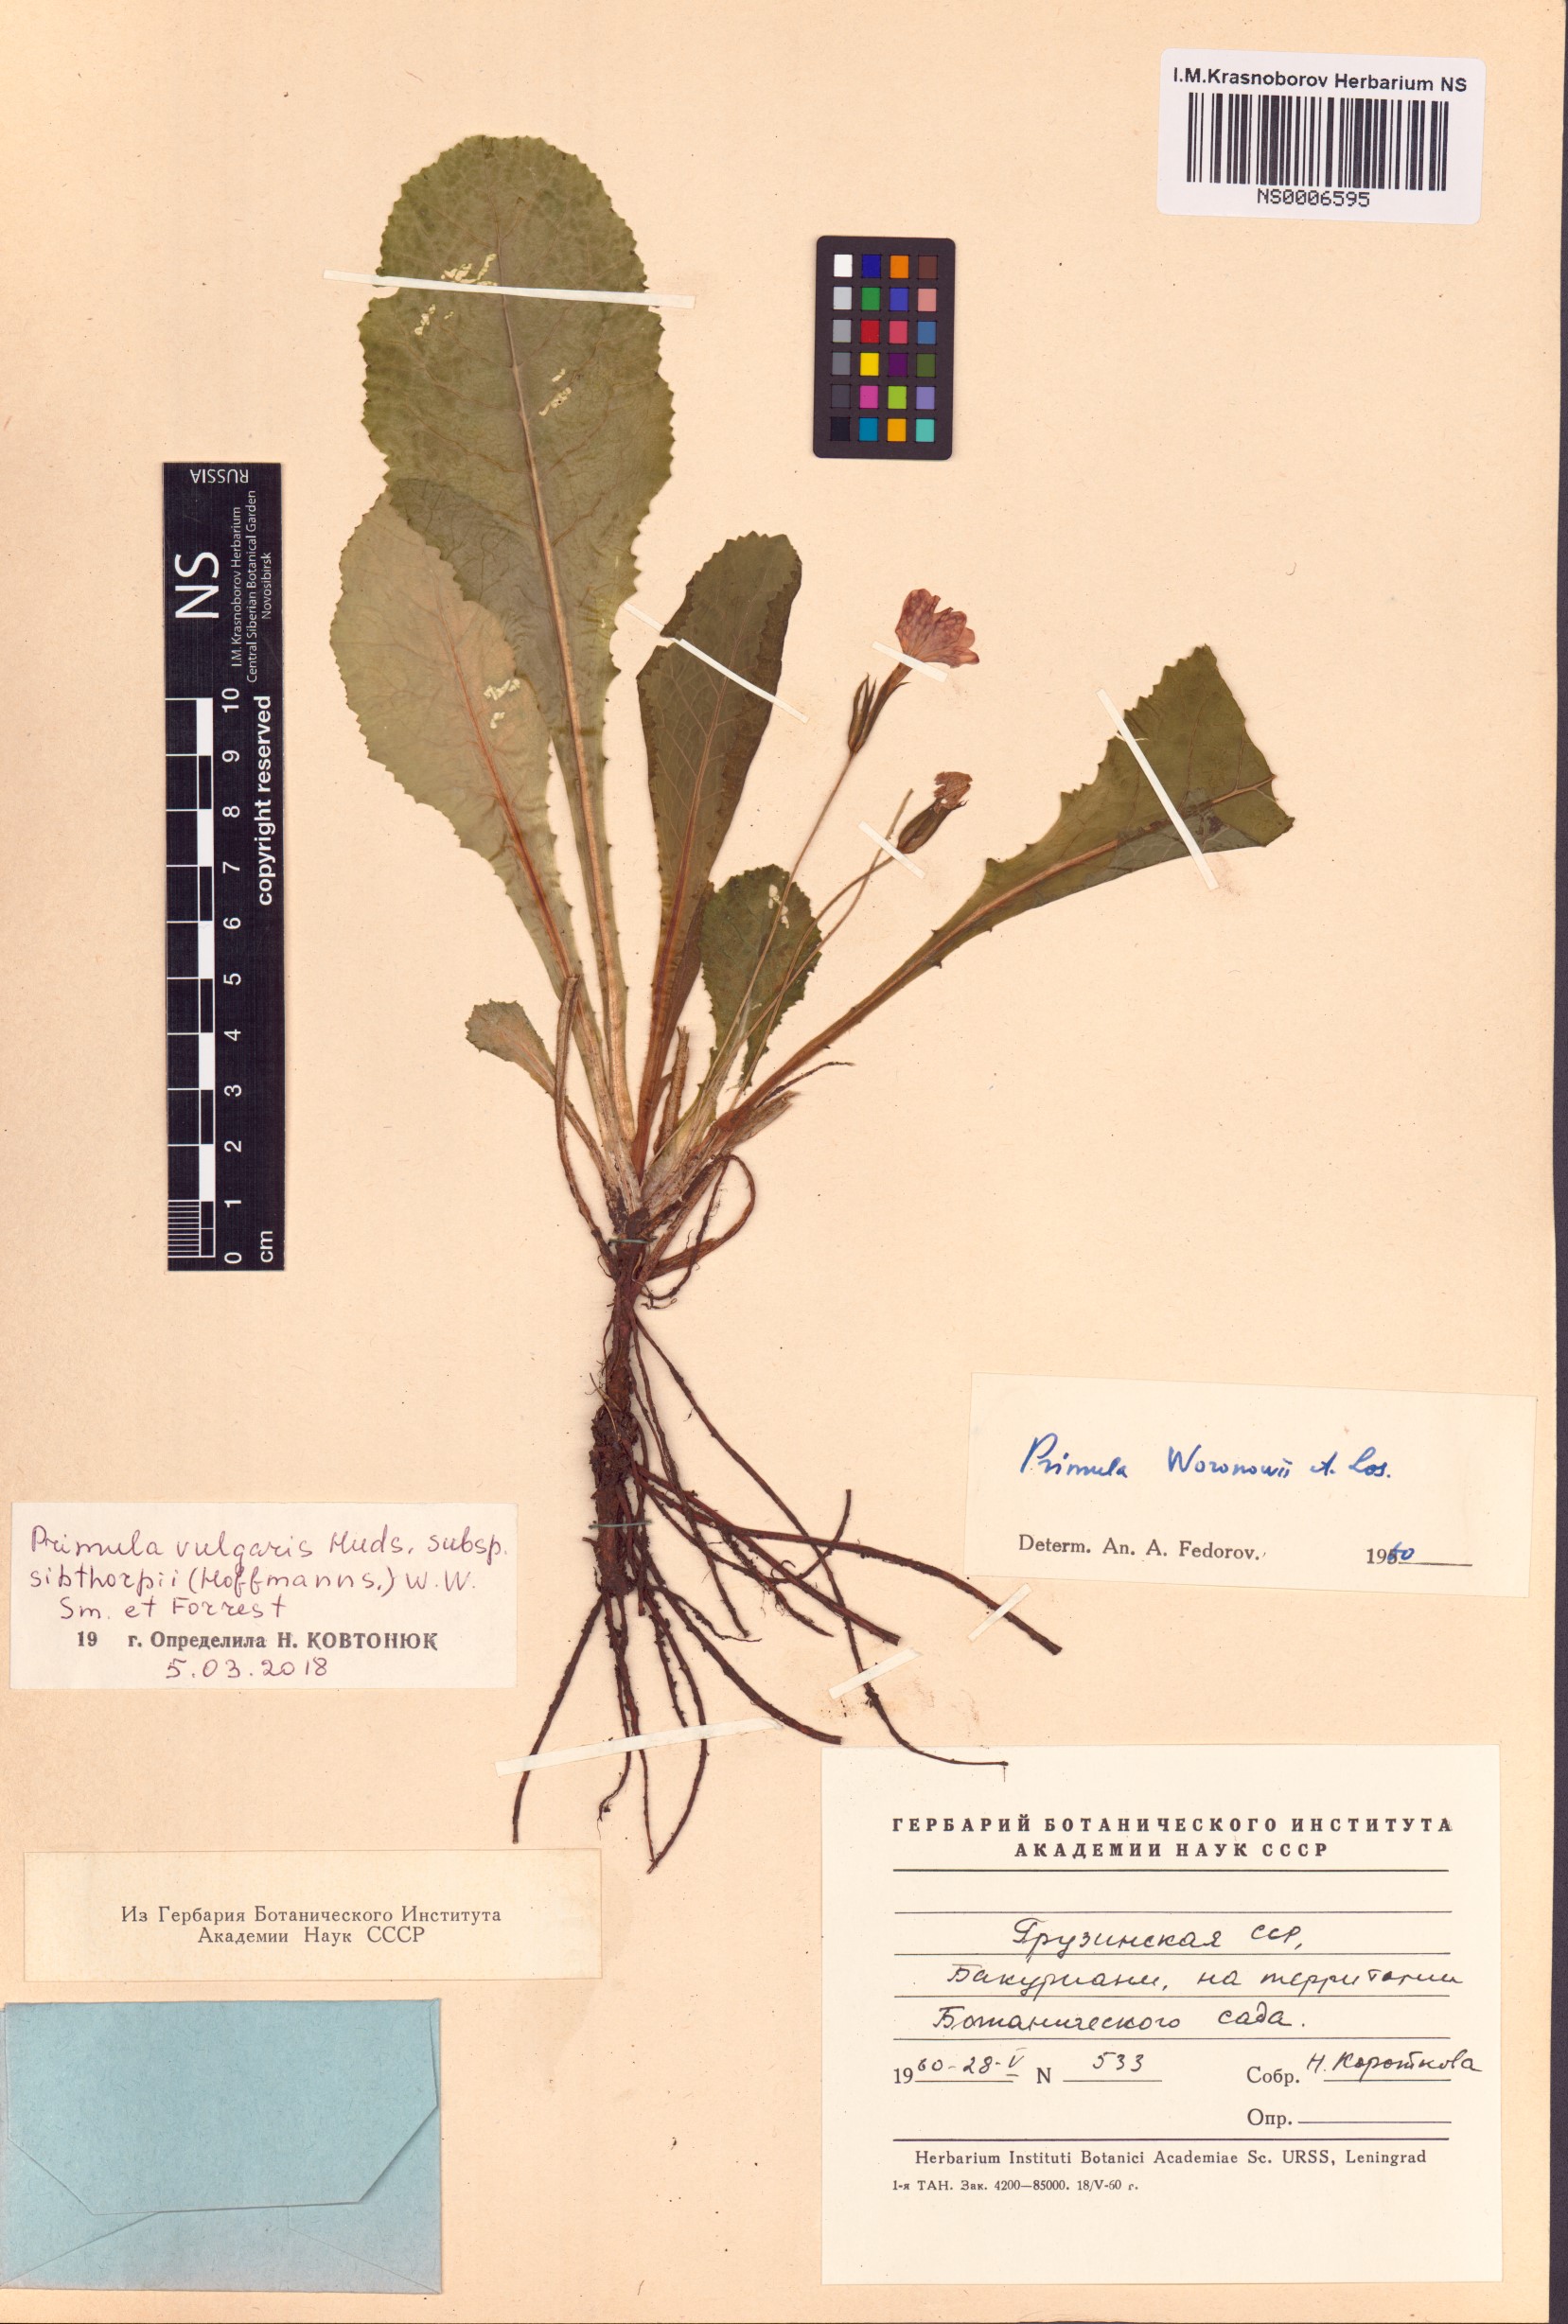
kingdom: Plantae
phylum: Tracheophyta
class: Magnoliopsida
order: Ericales
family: Primulaceae
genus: Primula
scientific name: Primula vulgaris
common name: Primrose
